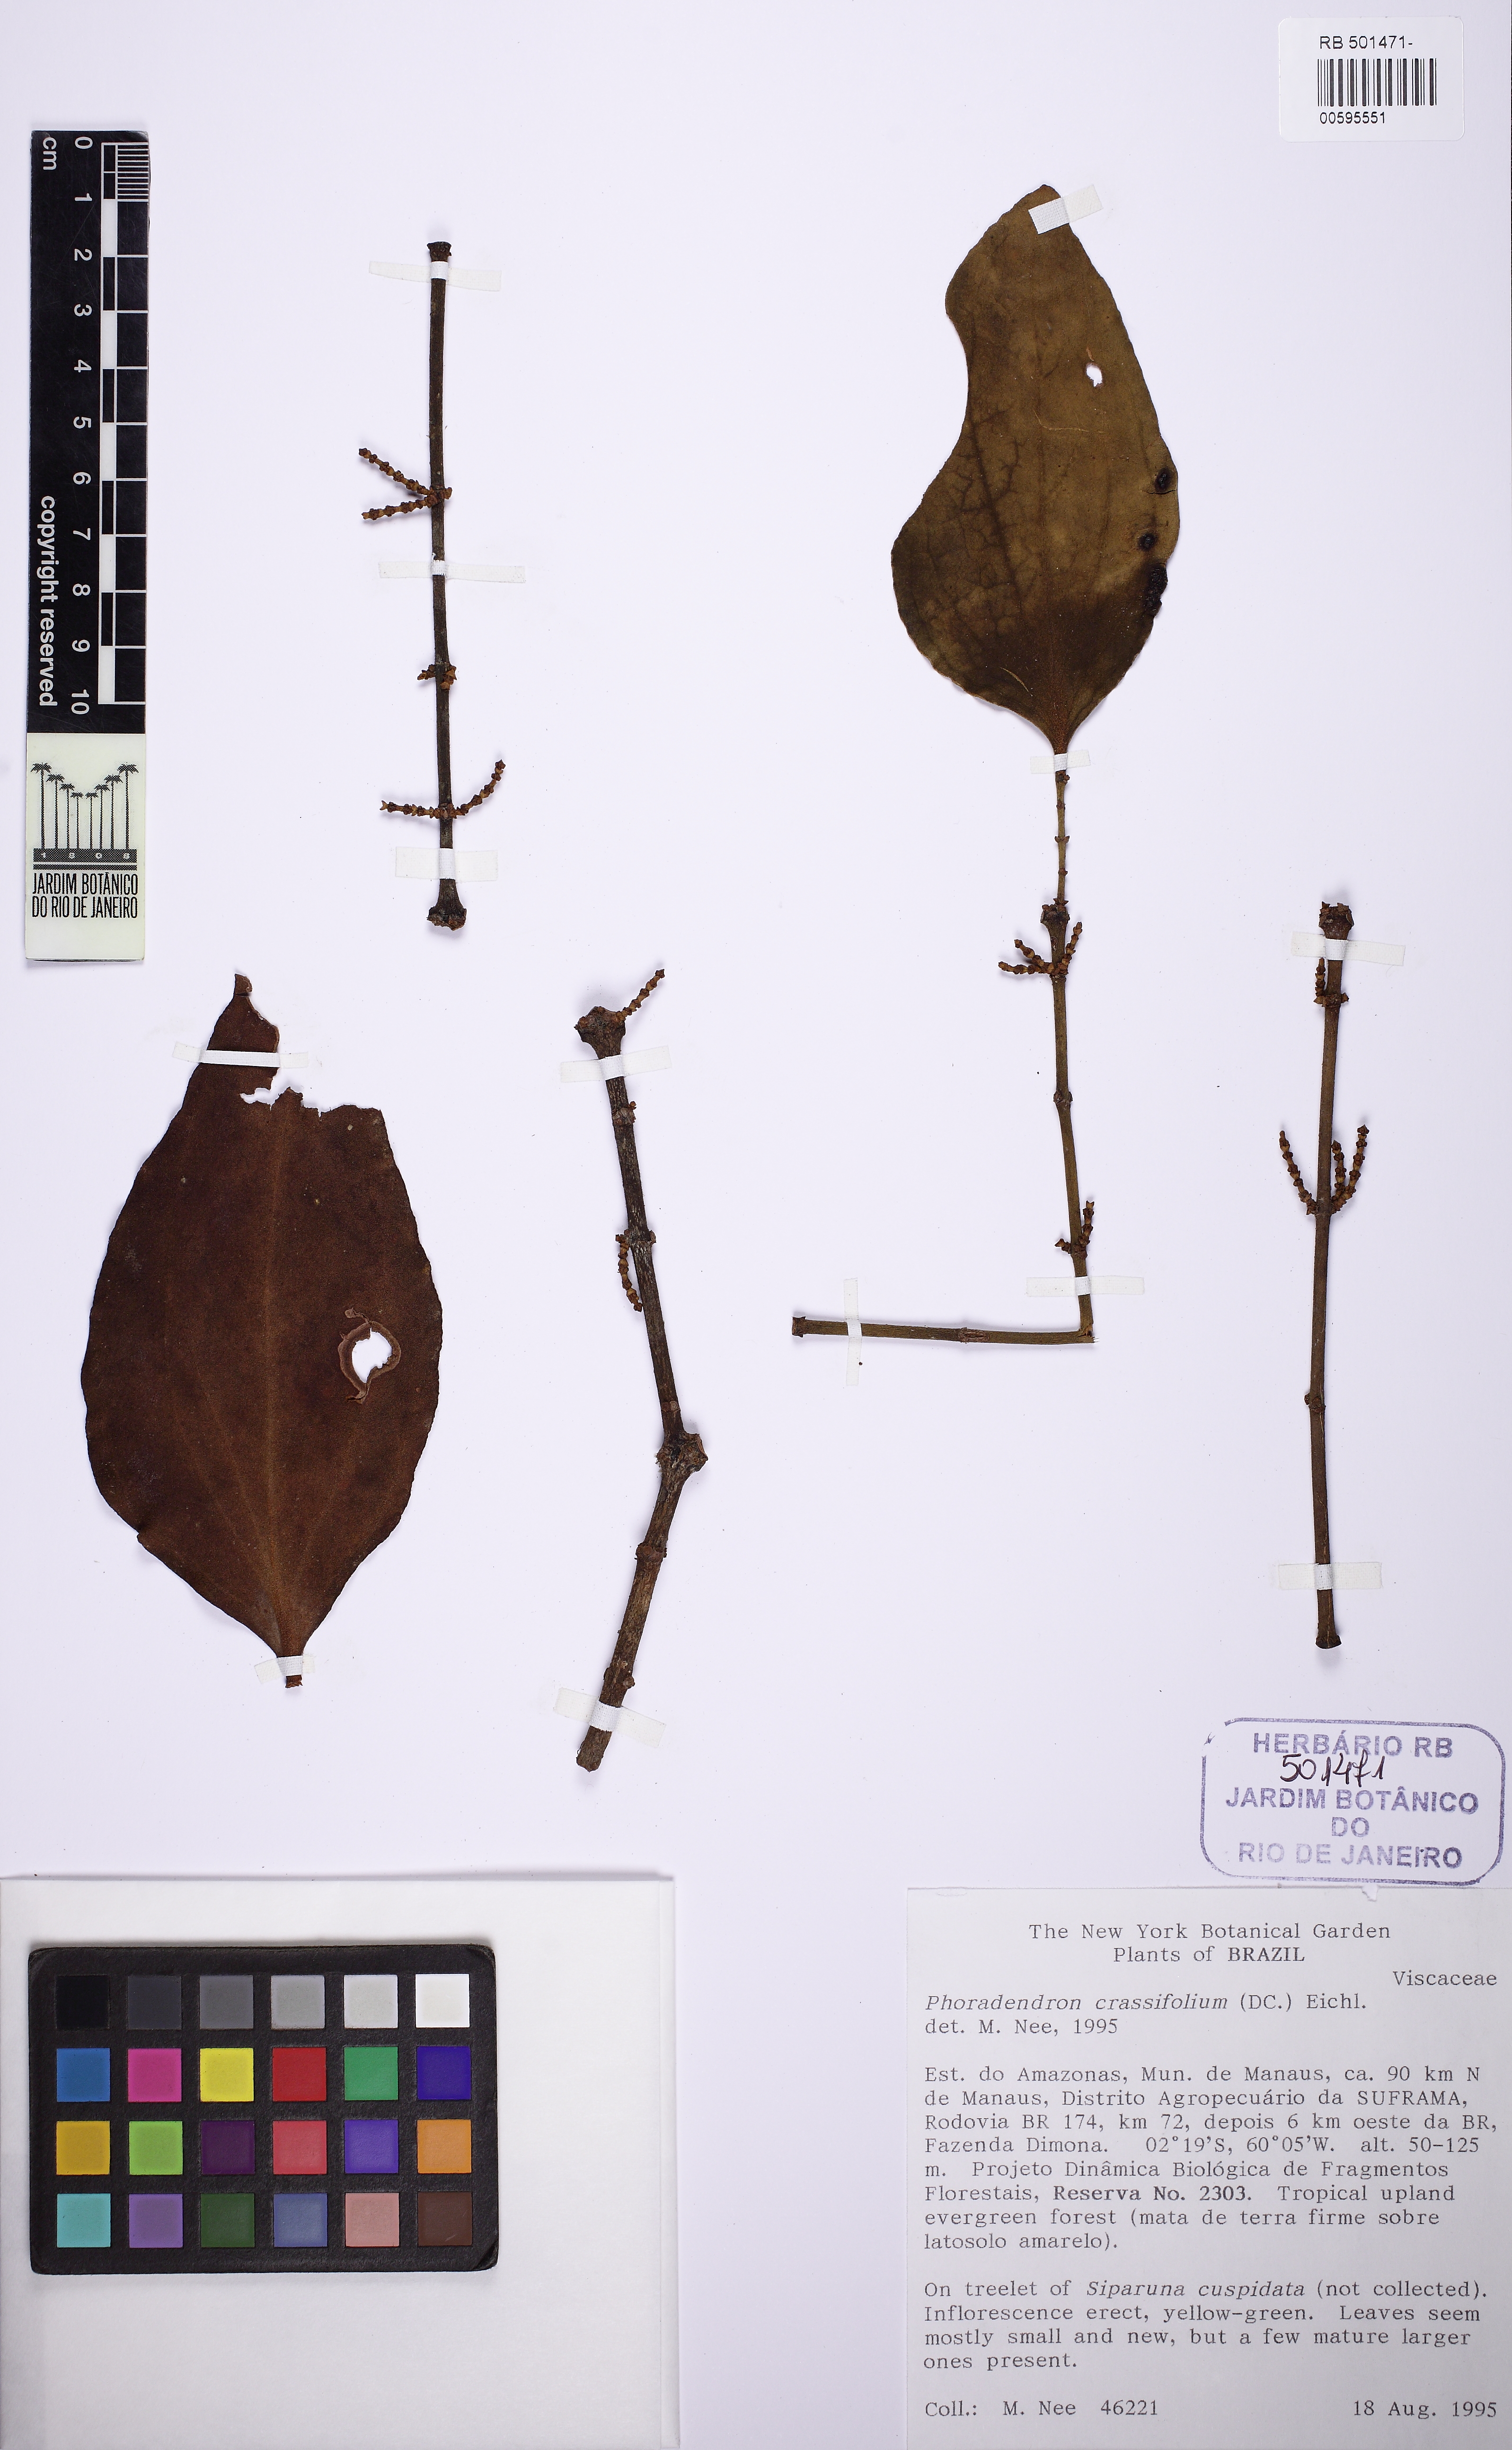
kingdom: Plantae
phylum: Tracheophyta
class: Magnoliopsida
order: Santalales
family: Viscaceae
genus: Phoradendron
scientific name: Phoradendron crassifolium
